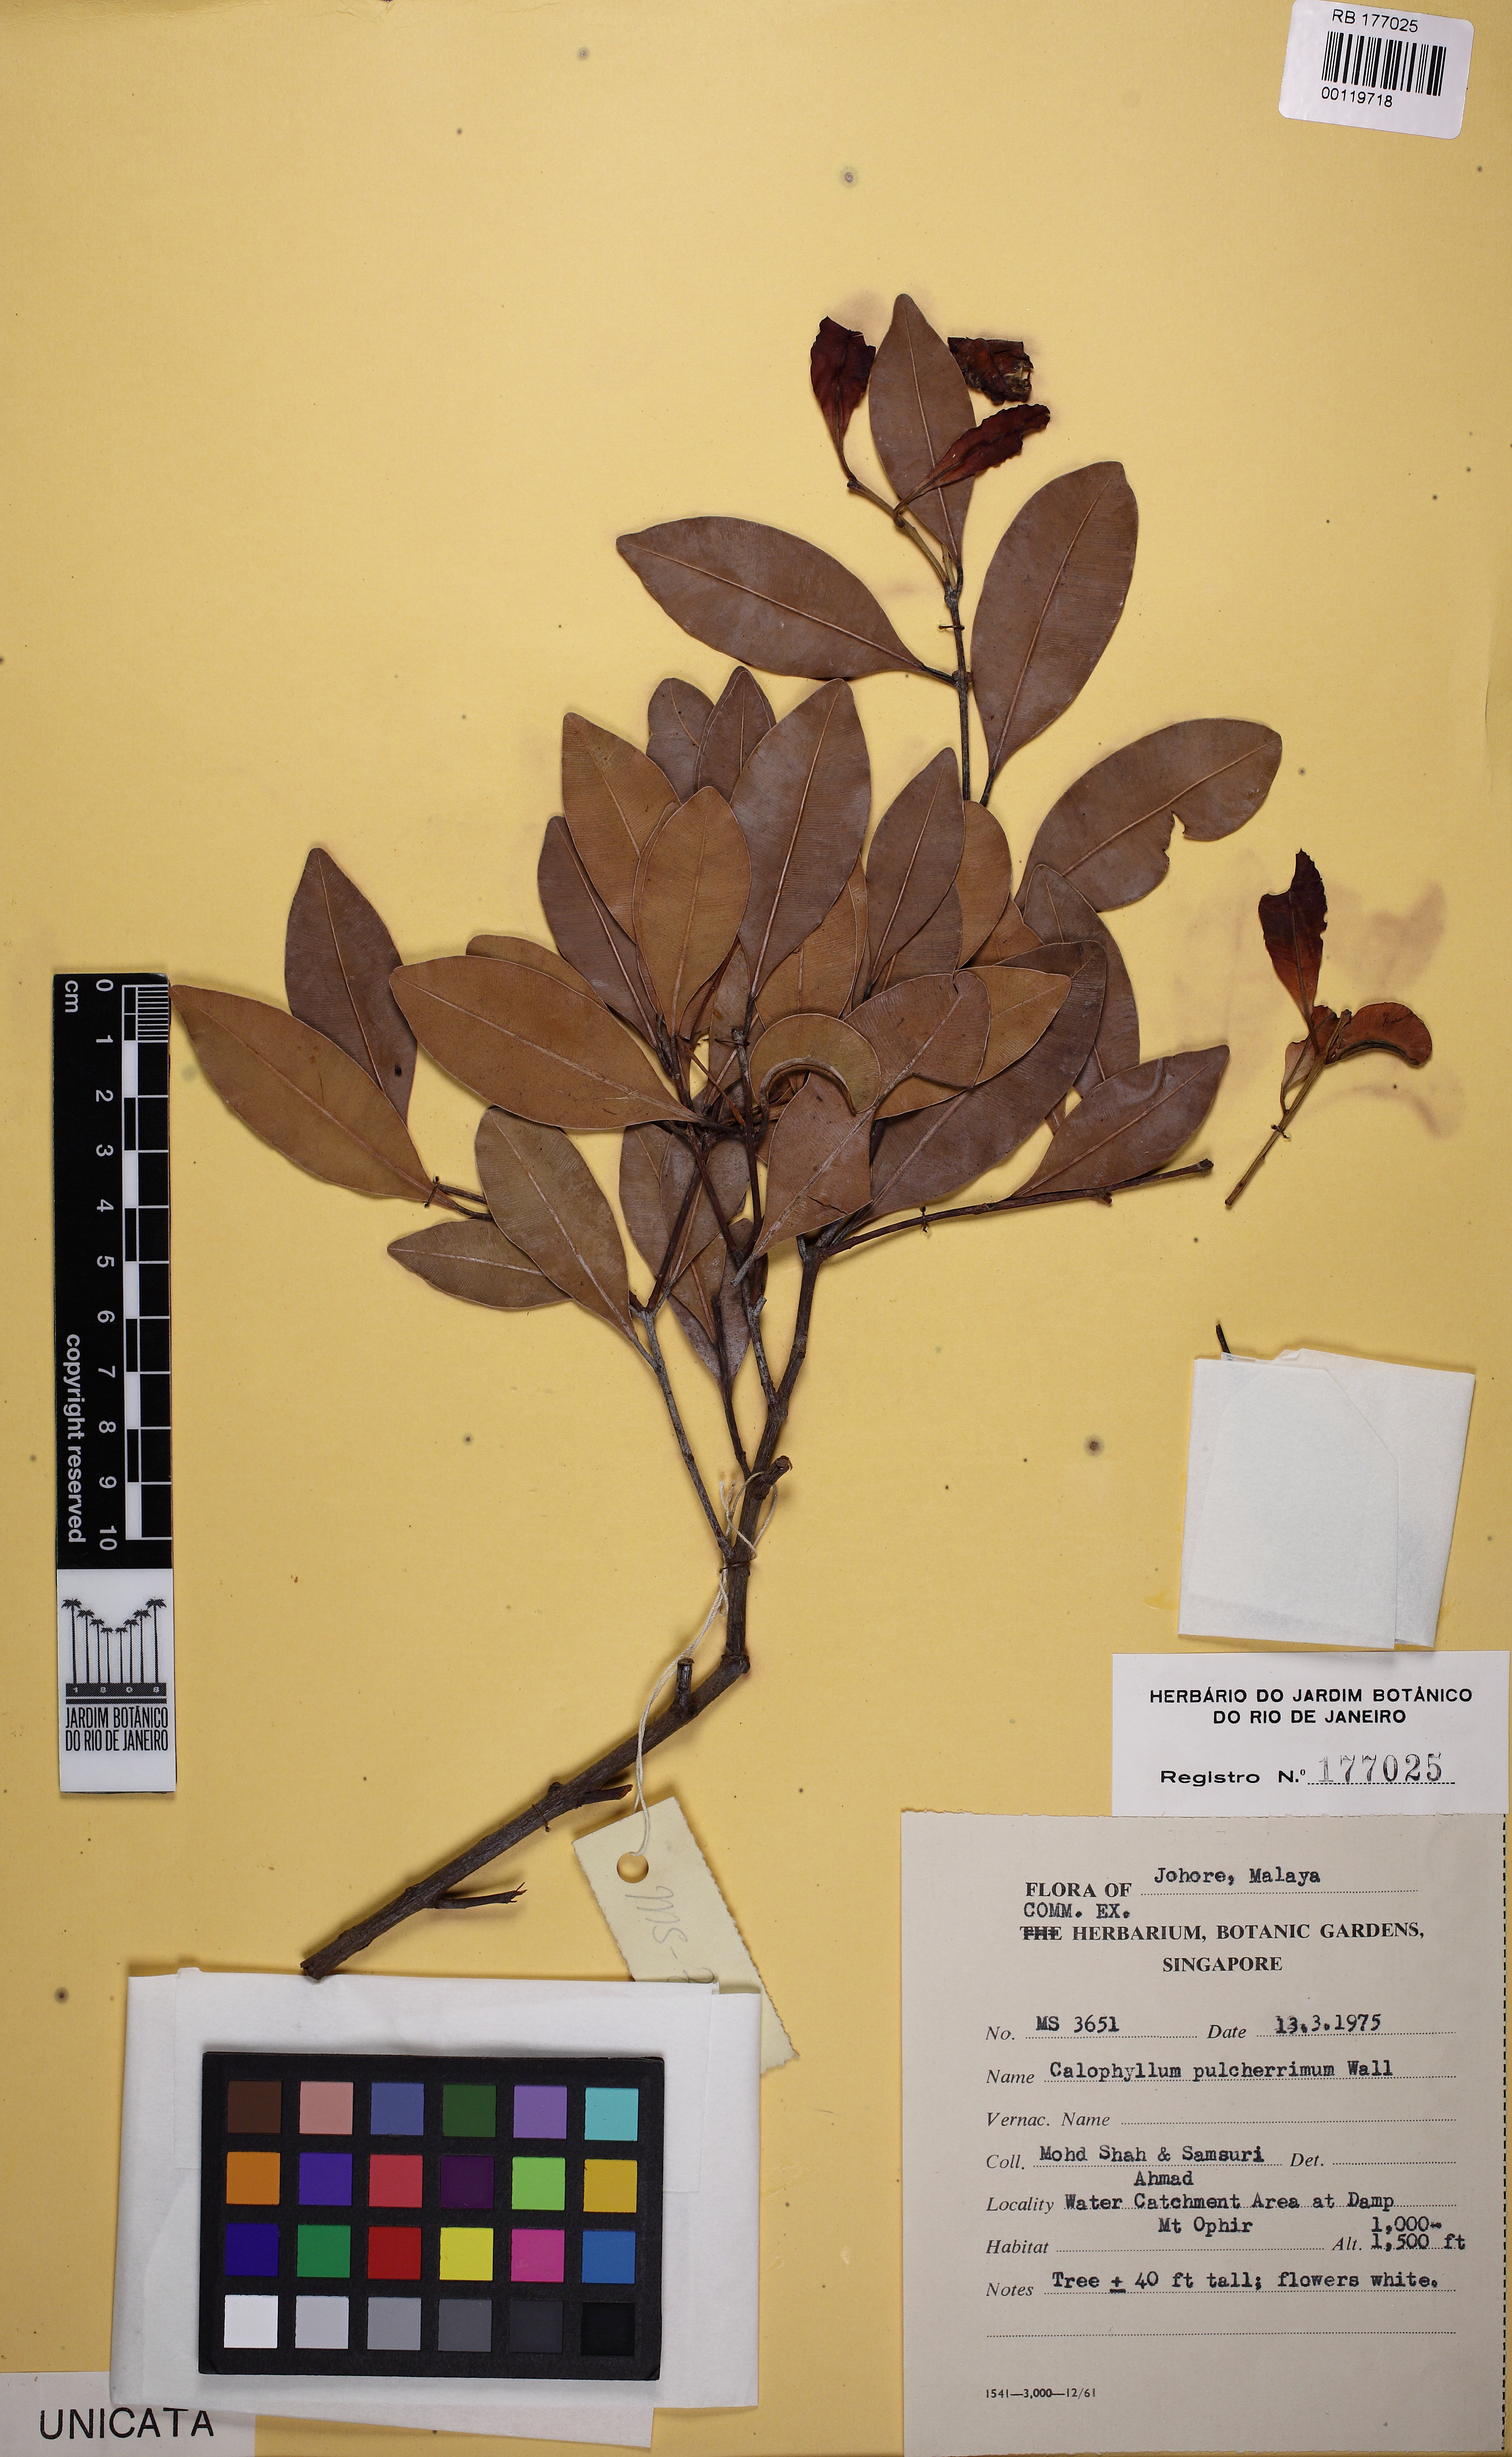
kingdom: Plantae
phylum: Tracheophyta
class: Magnoliopsida
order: Malpighiales
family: Calophyllaceae
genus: Calophyllum
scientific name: Calophyllum pulcherrimum
